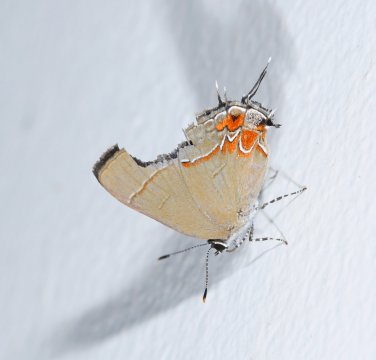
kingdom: Animalia
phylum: Arthropoda
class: Insecta
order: Lepidoptera
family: Lycaenidae
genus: Calycopis
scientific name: Calycopis isobeon
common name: Dusky-blue Groundstreak
